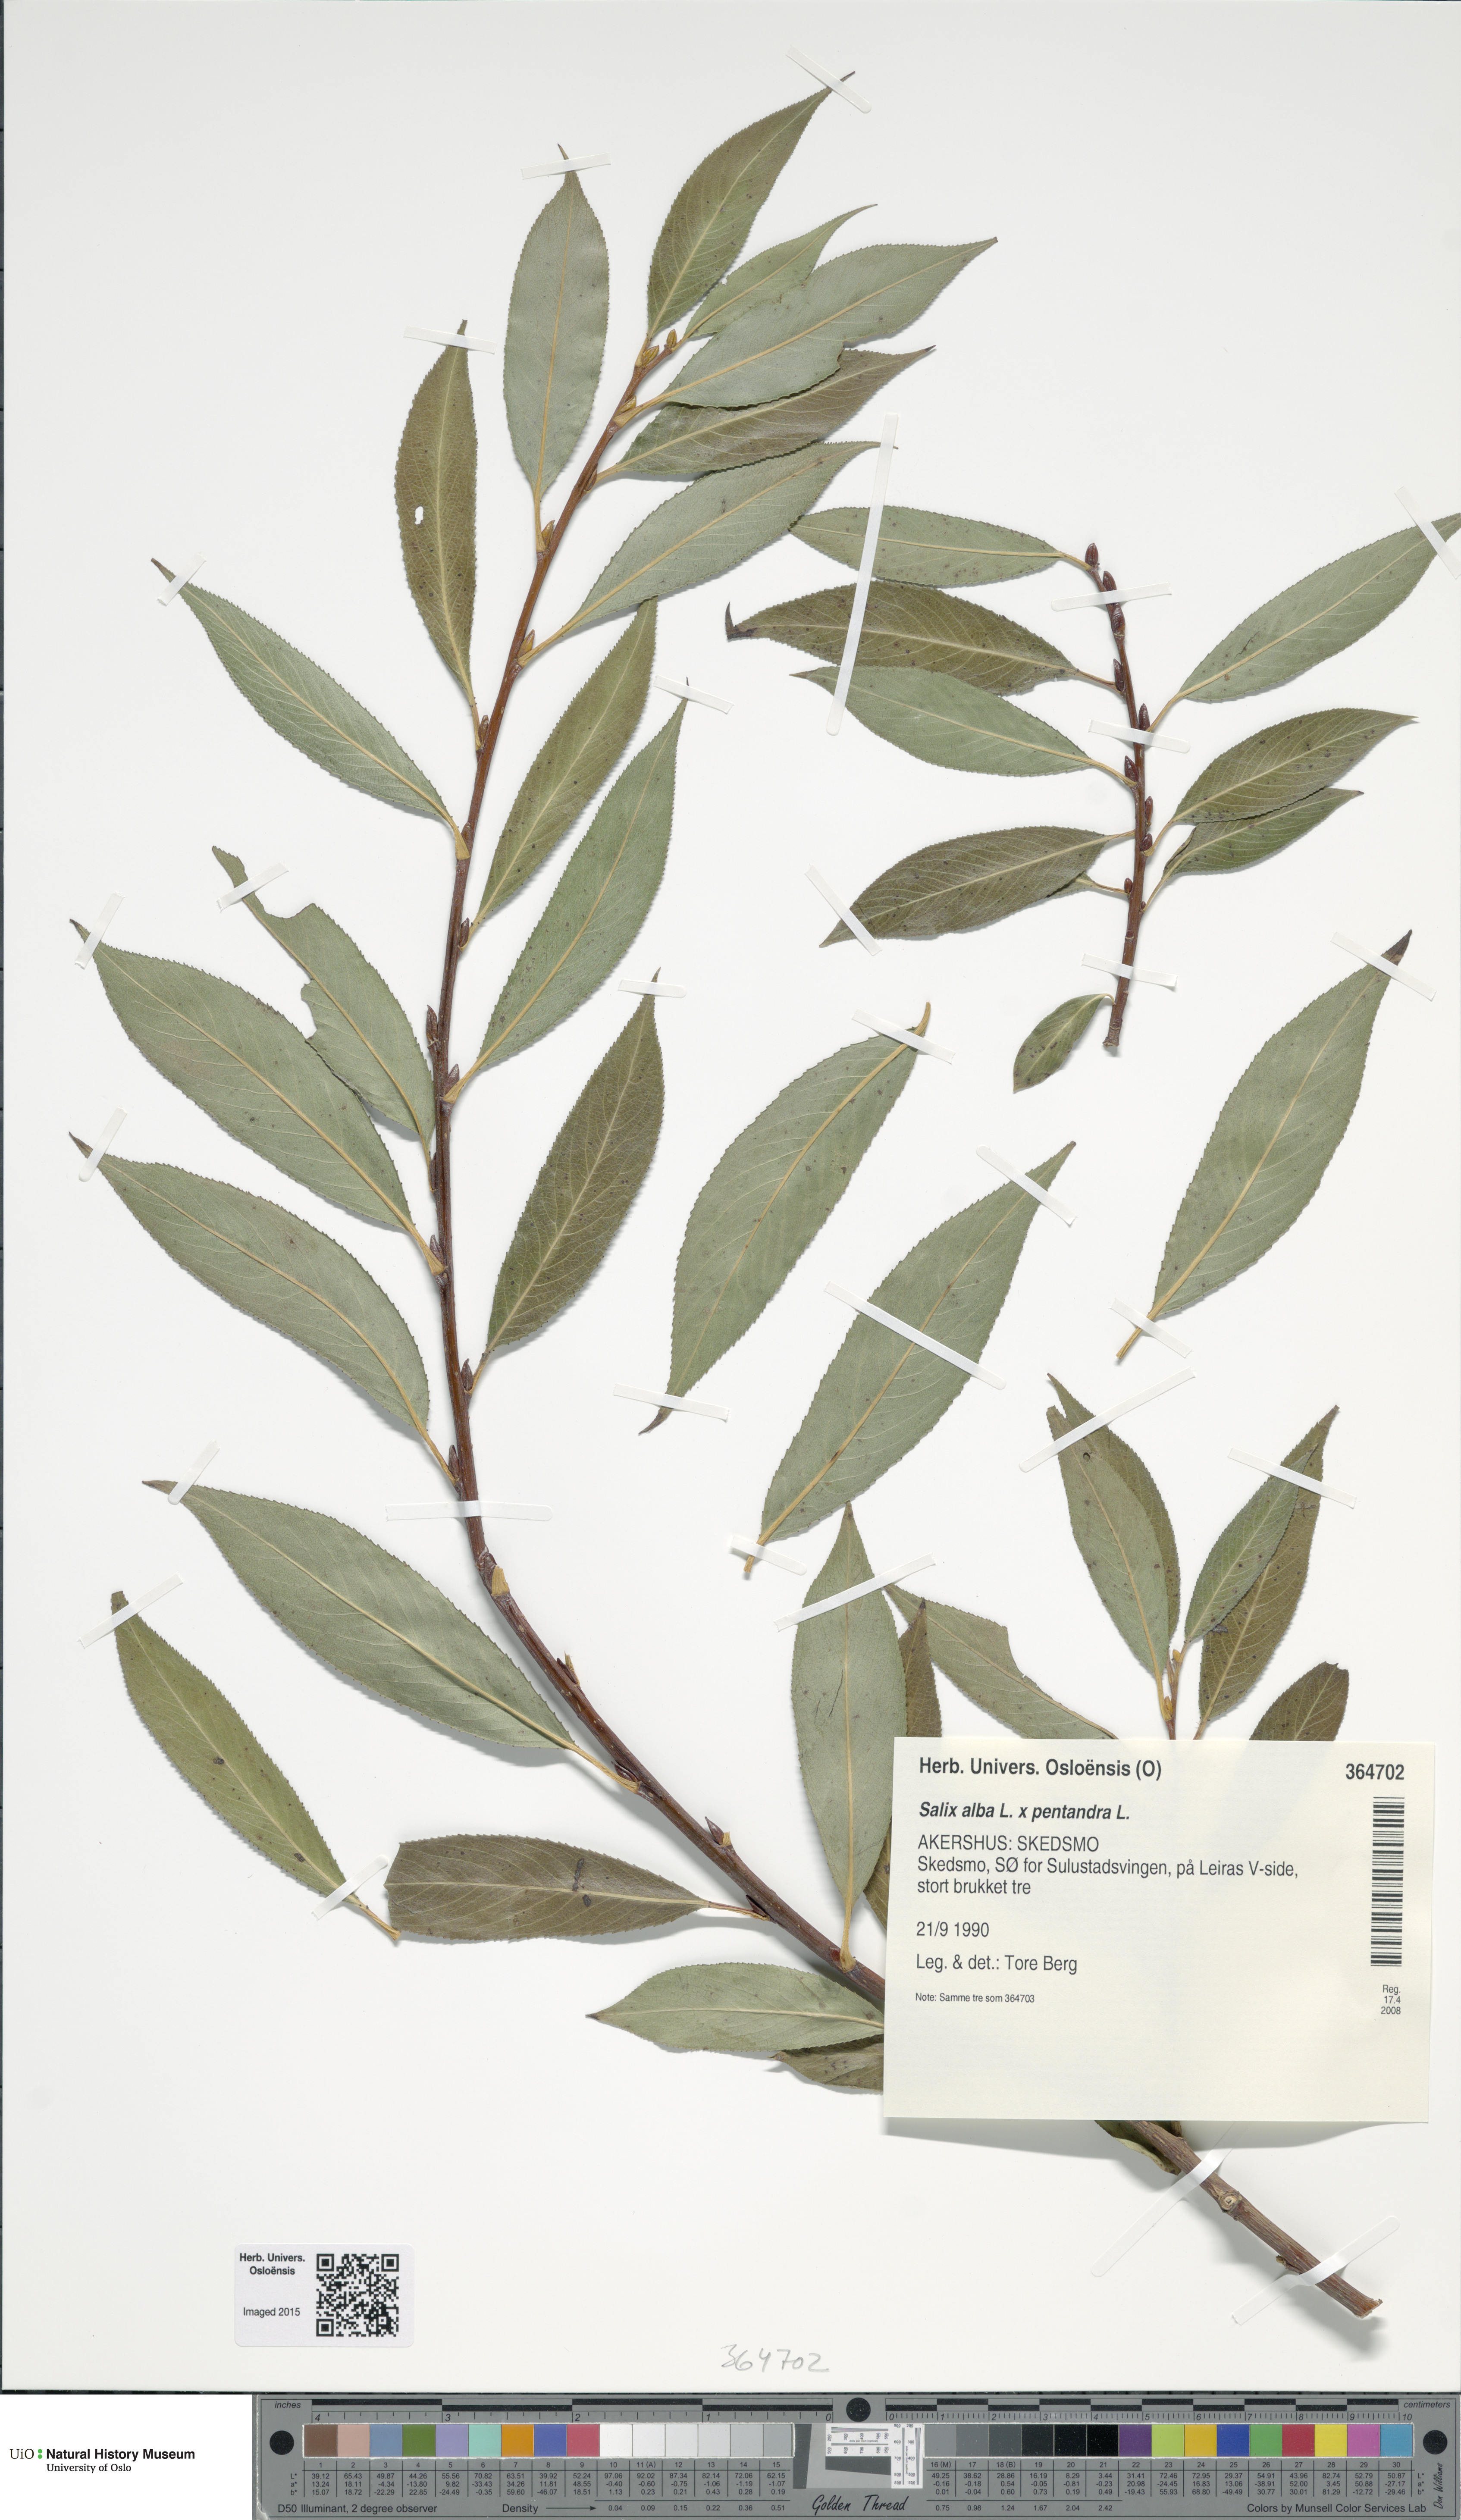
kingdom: Plantae
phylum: Tracheophyta
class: Magnoliopsida
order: Malpighiales
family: Salicaceae
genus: Salix
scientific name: Salix
